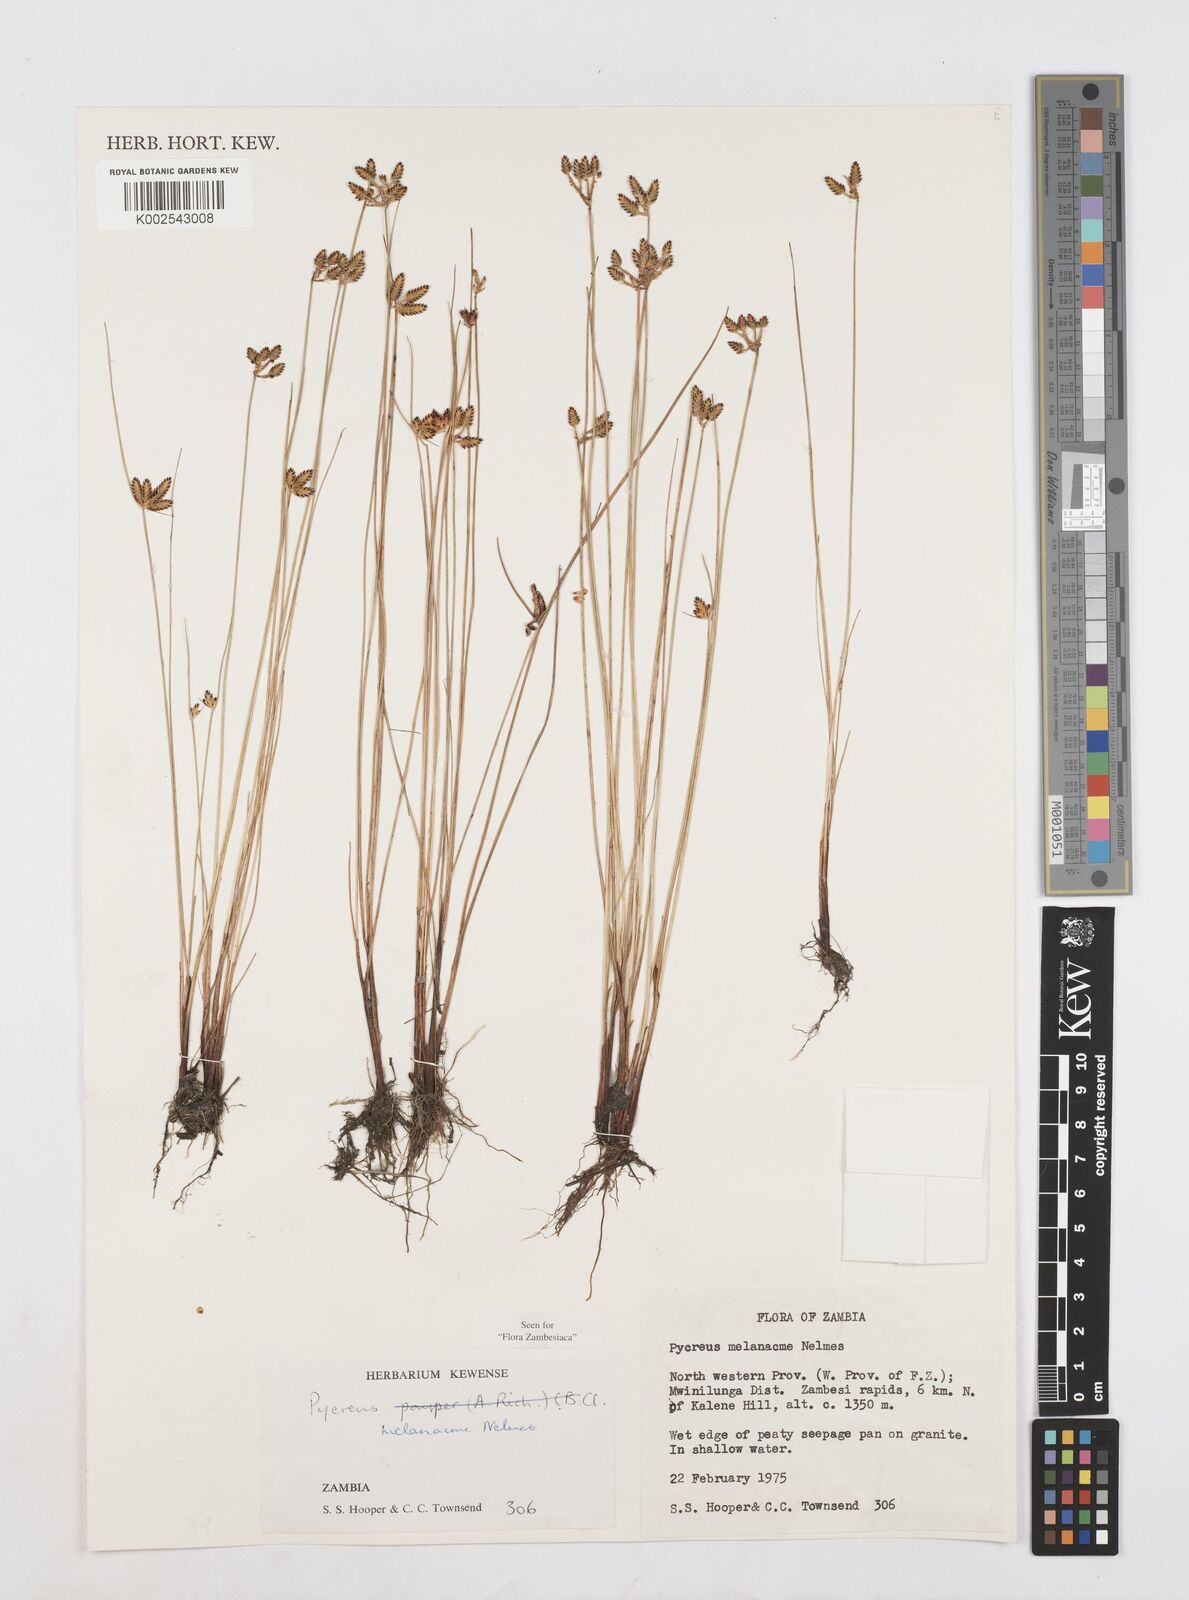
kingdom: Plantae
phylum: Tracheophyta
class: Liliopsida
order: Poales
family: Cyperaceae
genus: Cyperus
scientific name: Cyperus melanacme
